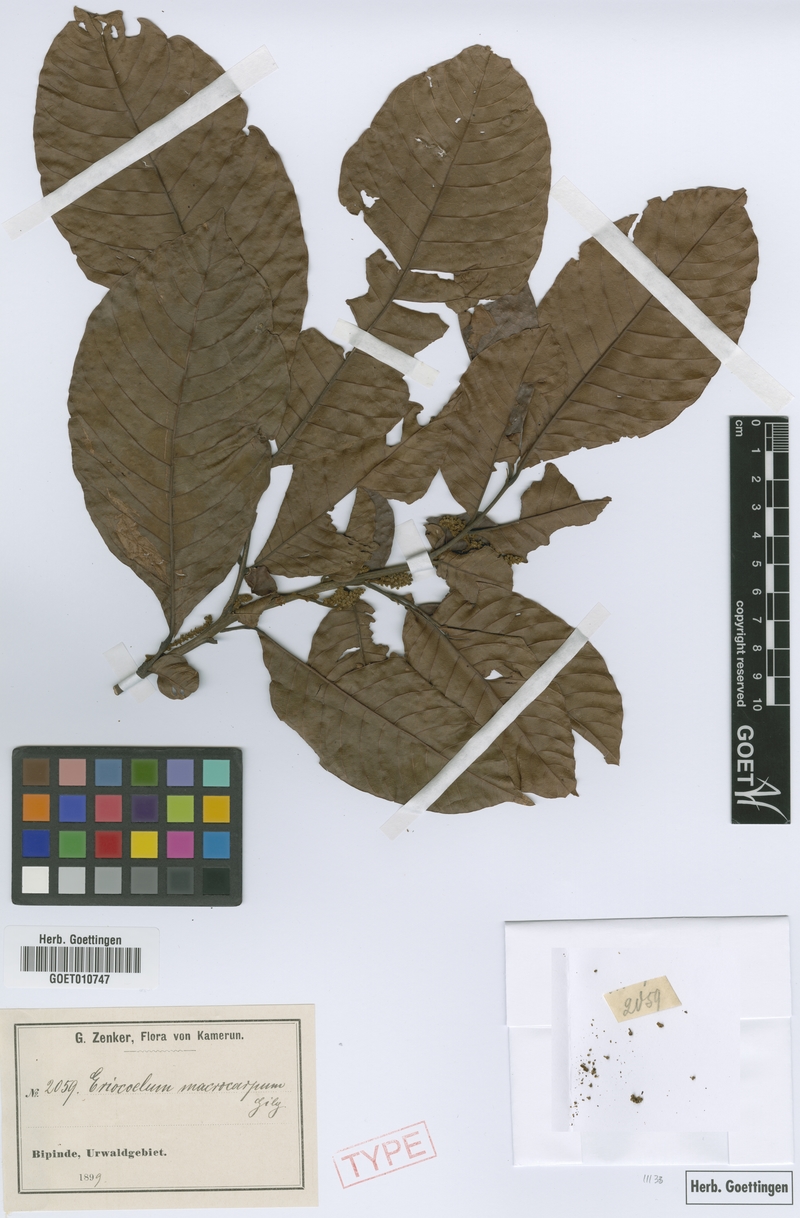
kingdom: Plantae
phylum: Tracheophyta
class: Magnoliopsida
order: Sapindales
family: Sapindaceae
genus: Eriocoelum
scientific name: Eriocoelum macrocarpum
